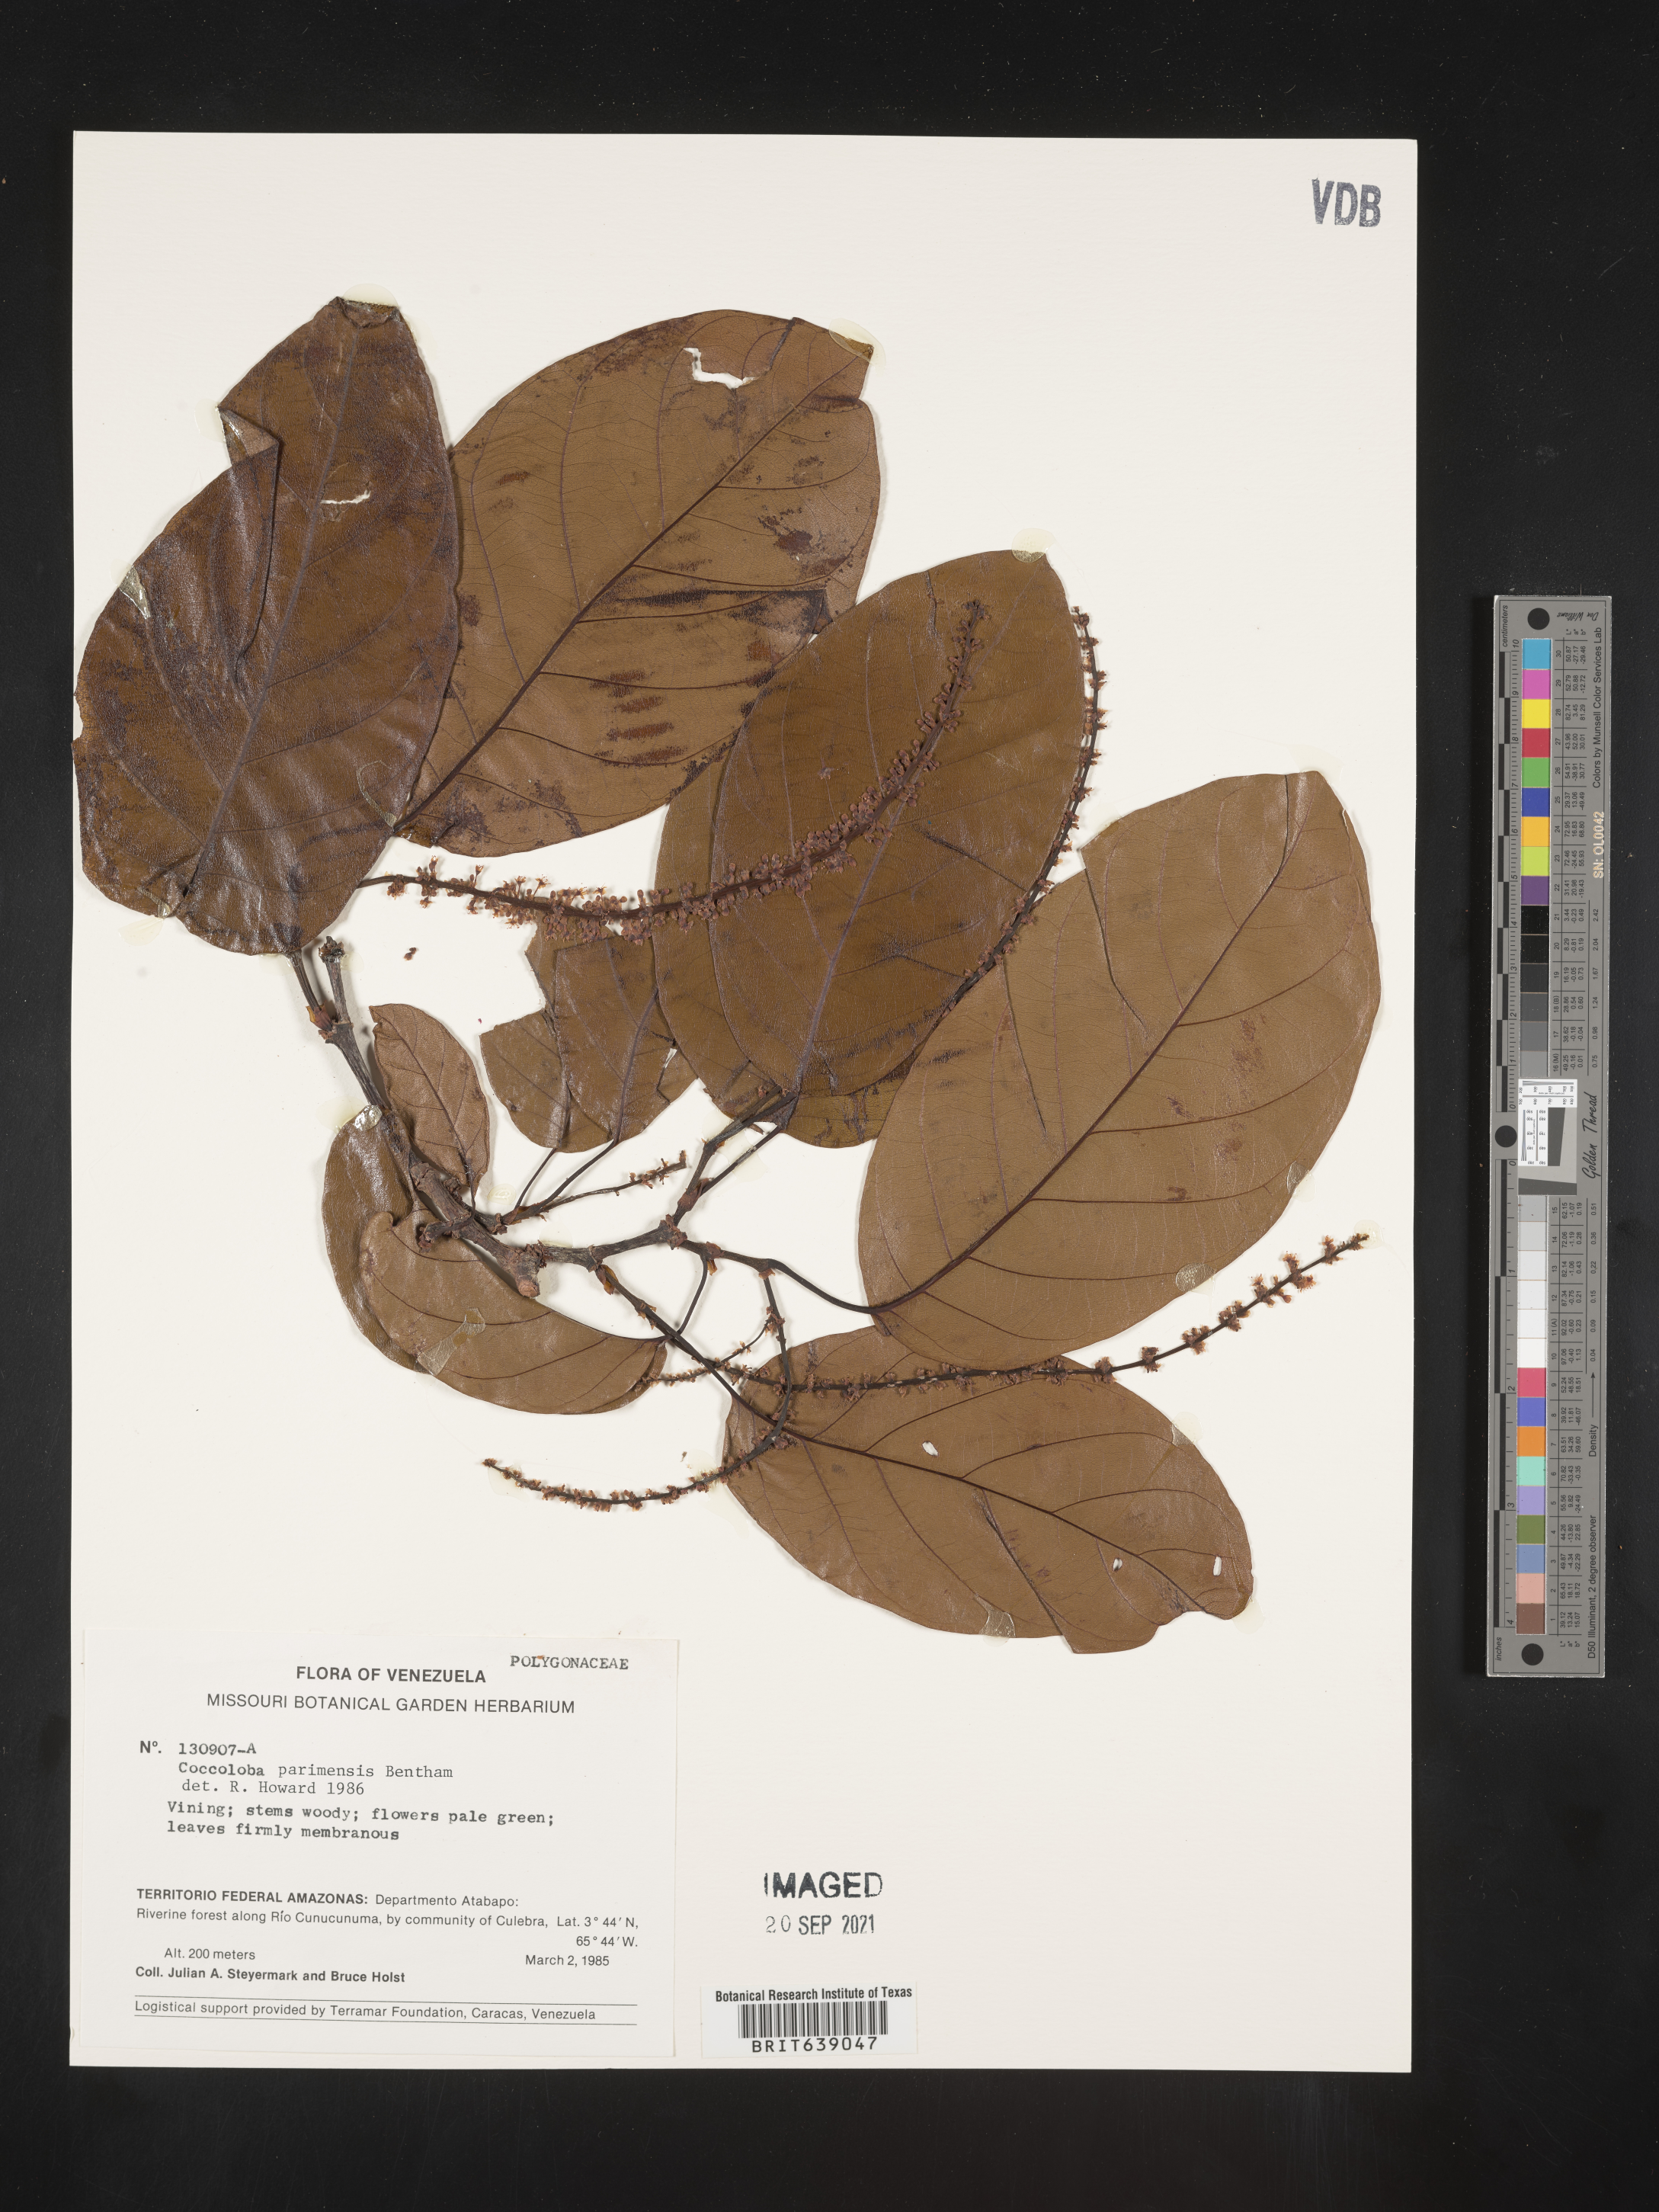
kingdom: Plantae
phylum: Tracheophyta
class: Magnoliopsida
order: Caryophyllales
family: Polygonaceae
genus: Coccoloba
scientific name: Coccoloba
